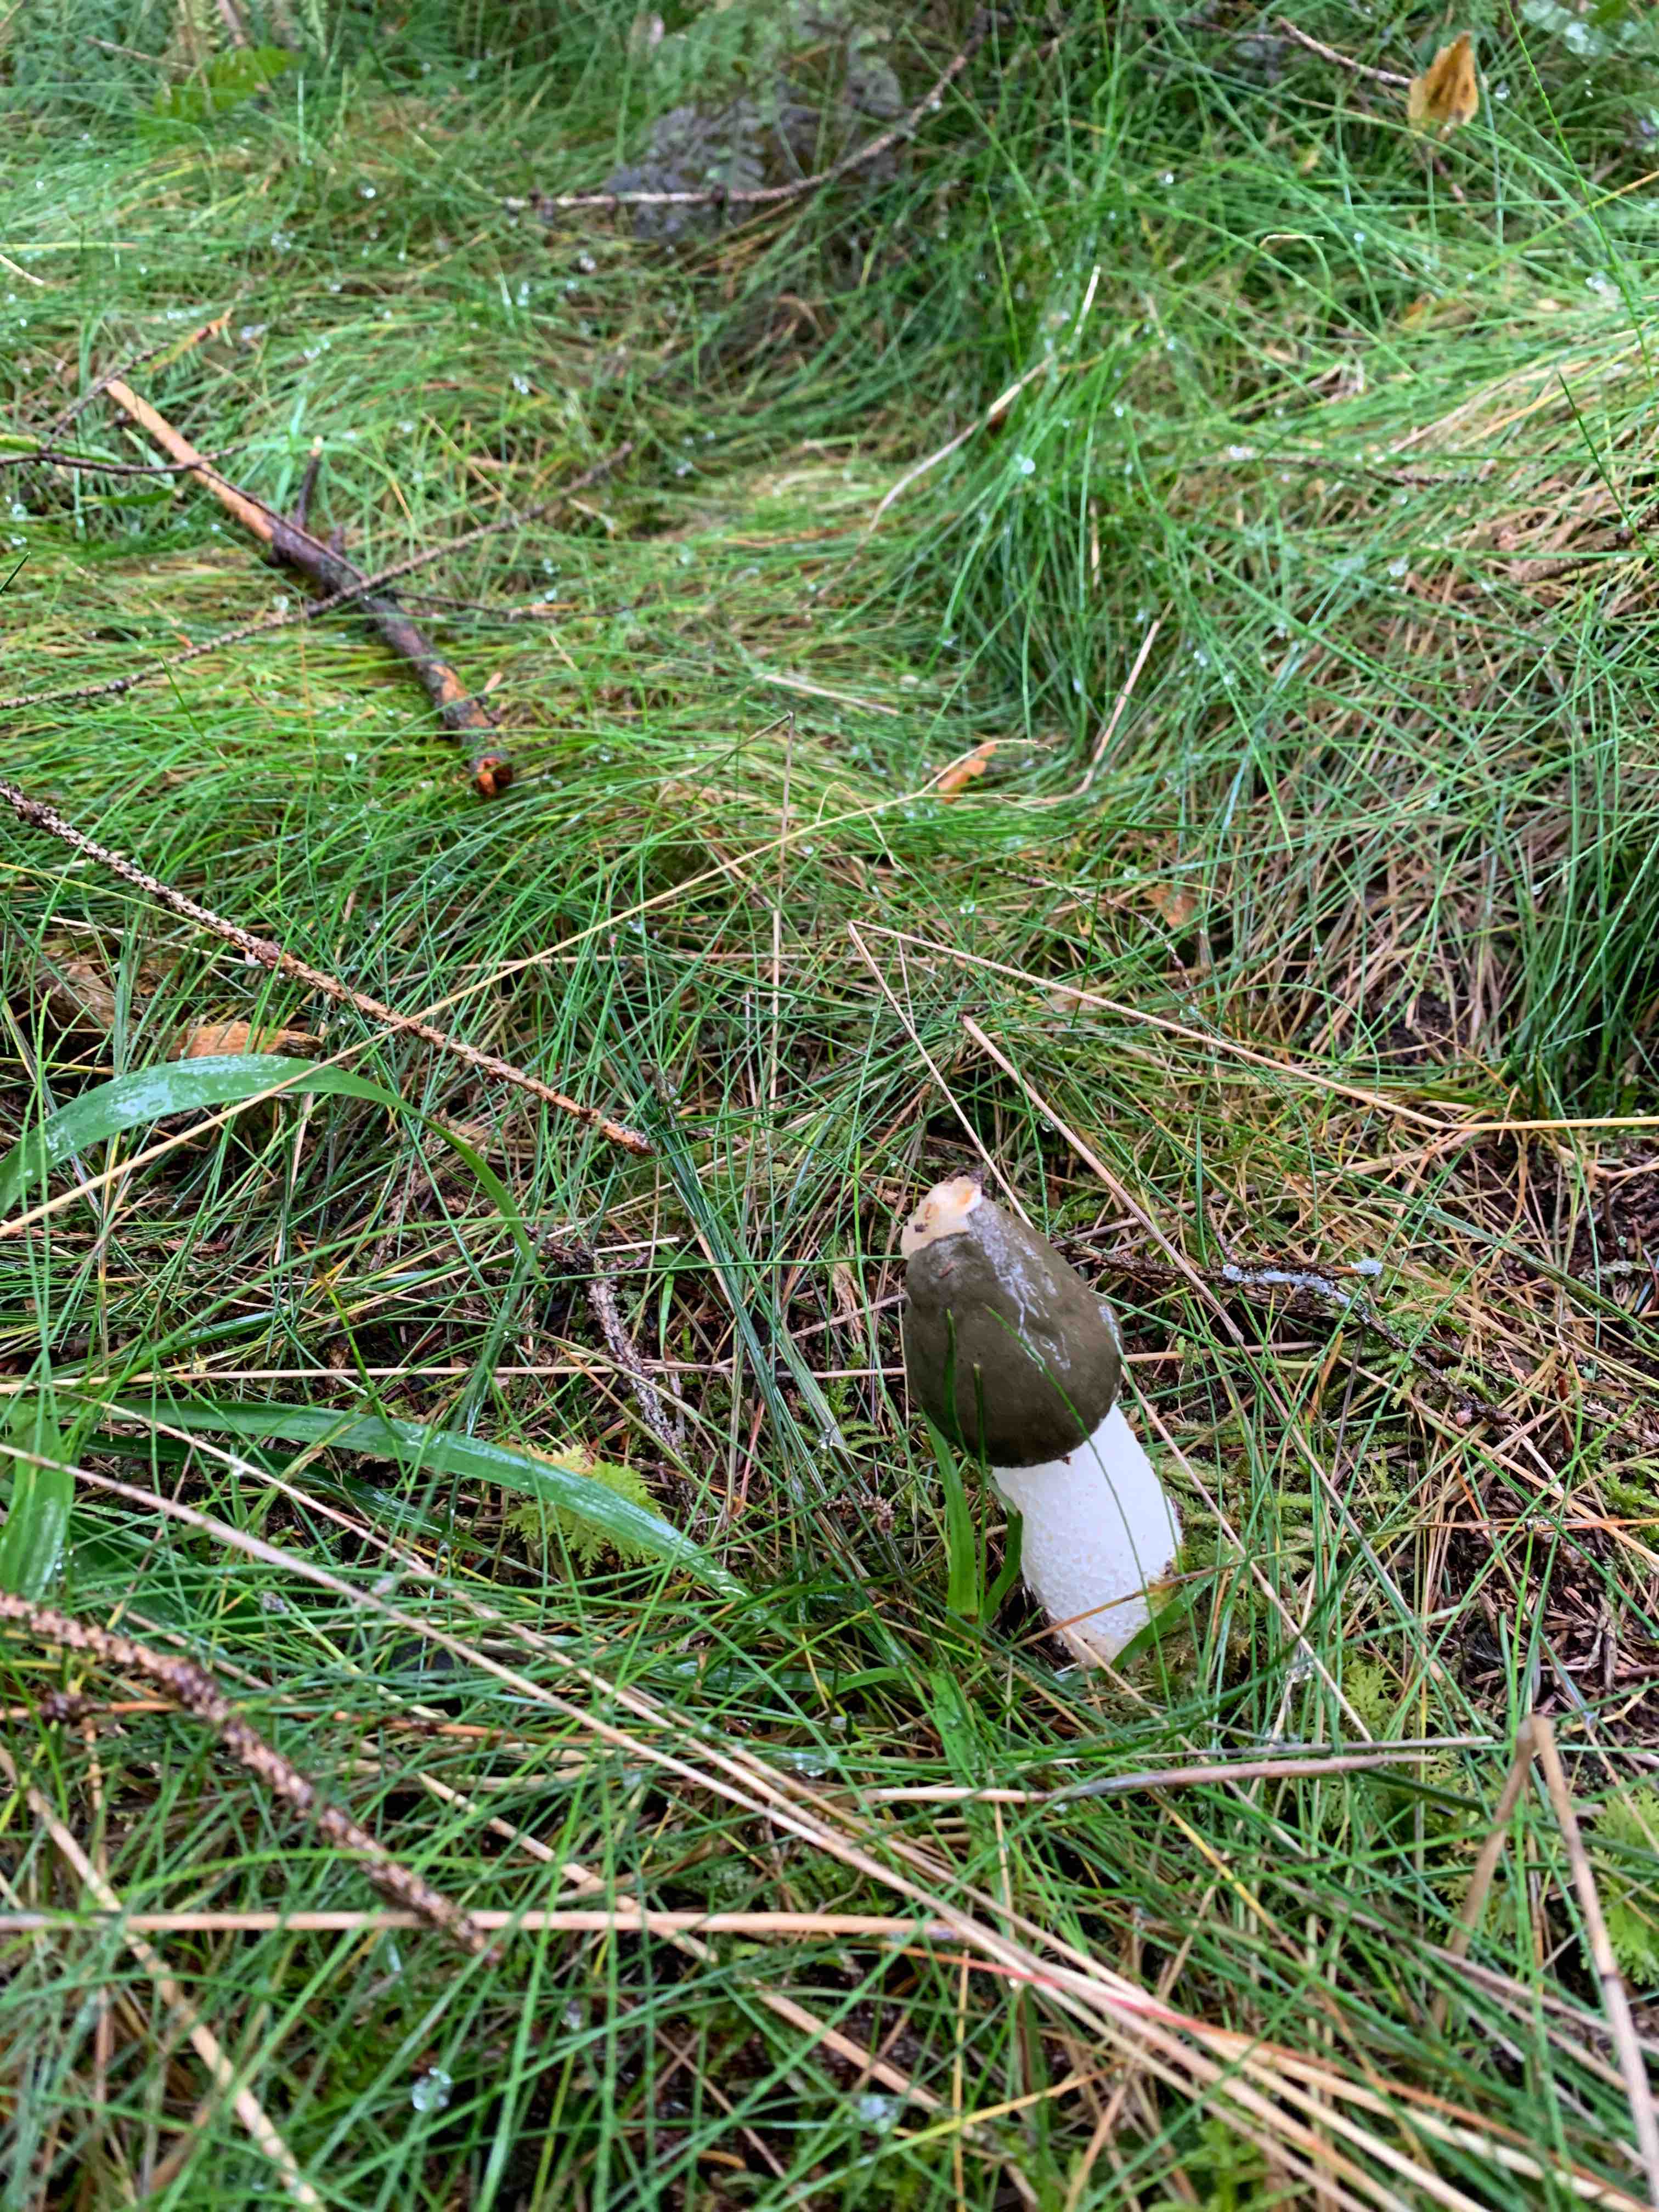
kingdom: Fungi
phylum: Basidiomycota
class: Agaricomycetes
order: Phallales
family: Phallaceae
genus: Phallus
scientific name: Phallus impudicus
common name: almindelig stinksvamp
